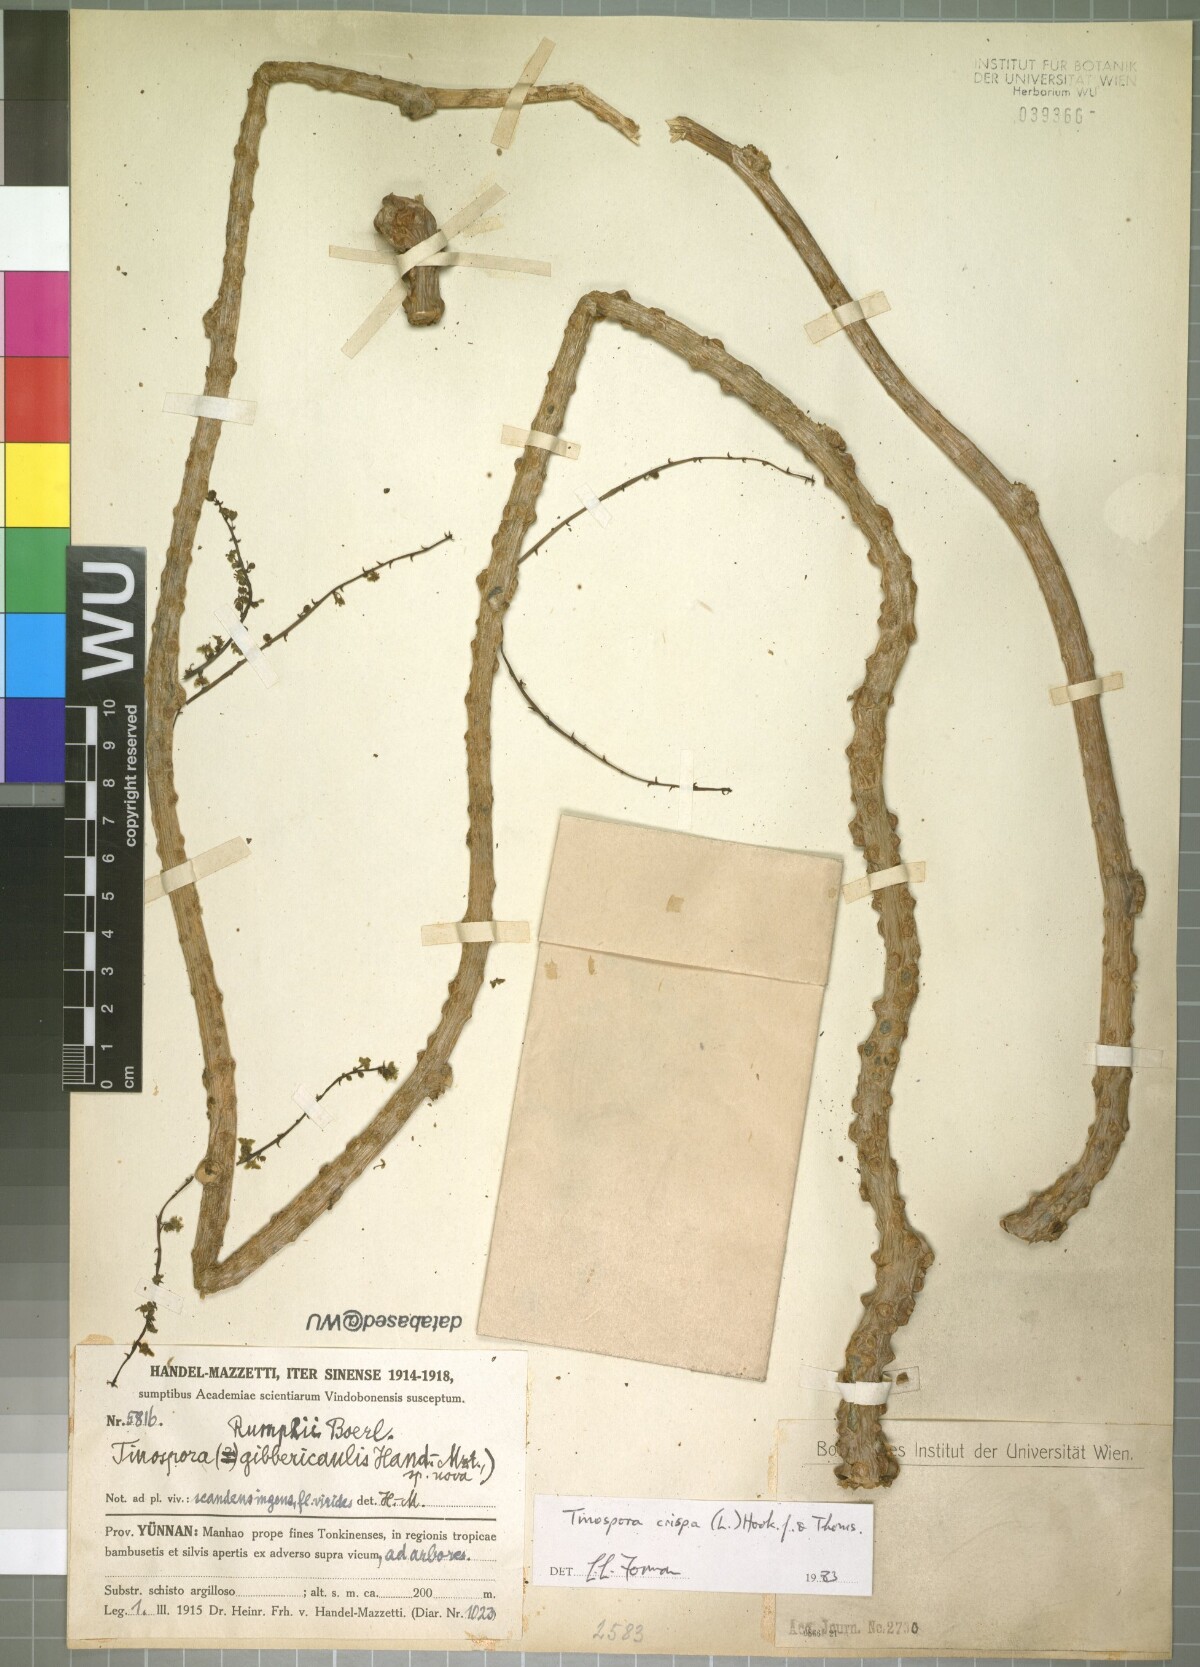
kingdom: Plantae
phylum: Tracheophyta
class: Magnoliopsida
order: Ranunculales
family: Menispermaceae
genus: Tinospora
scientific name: Tinospora crispa
